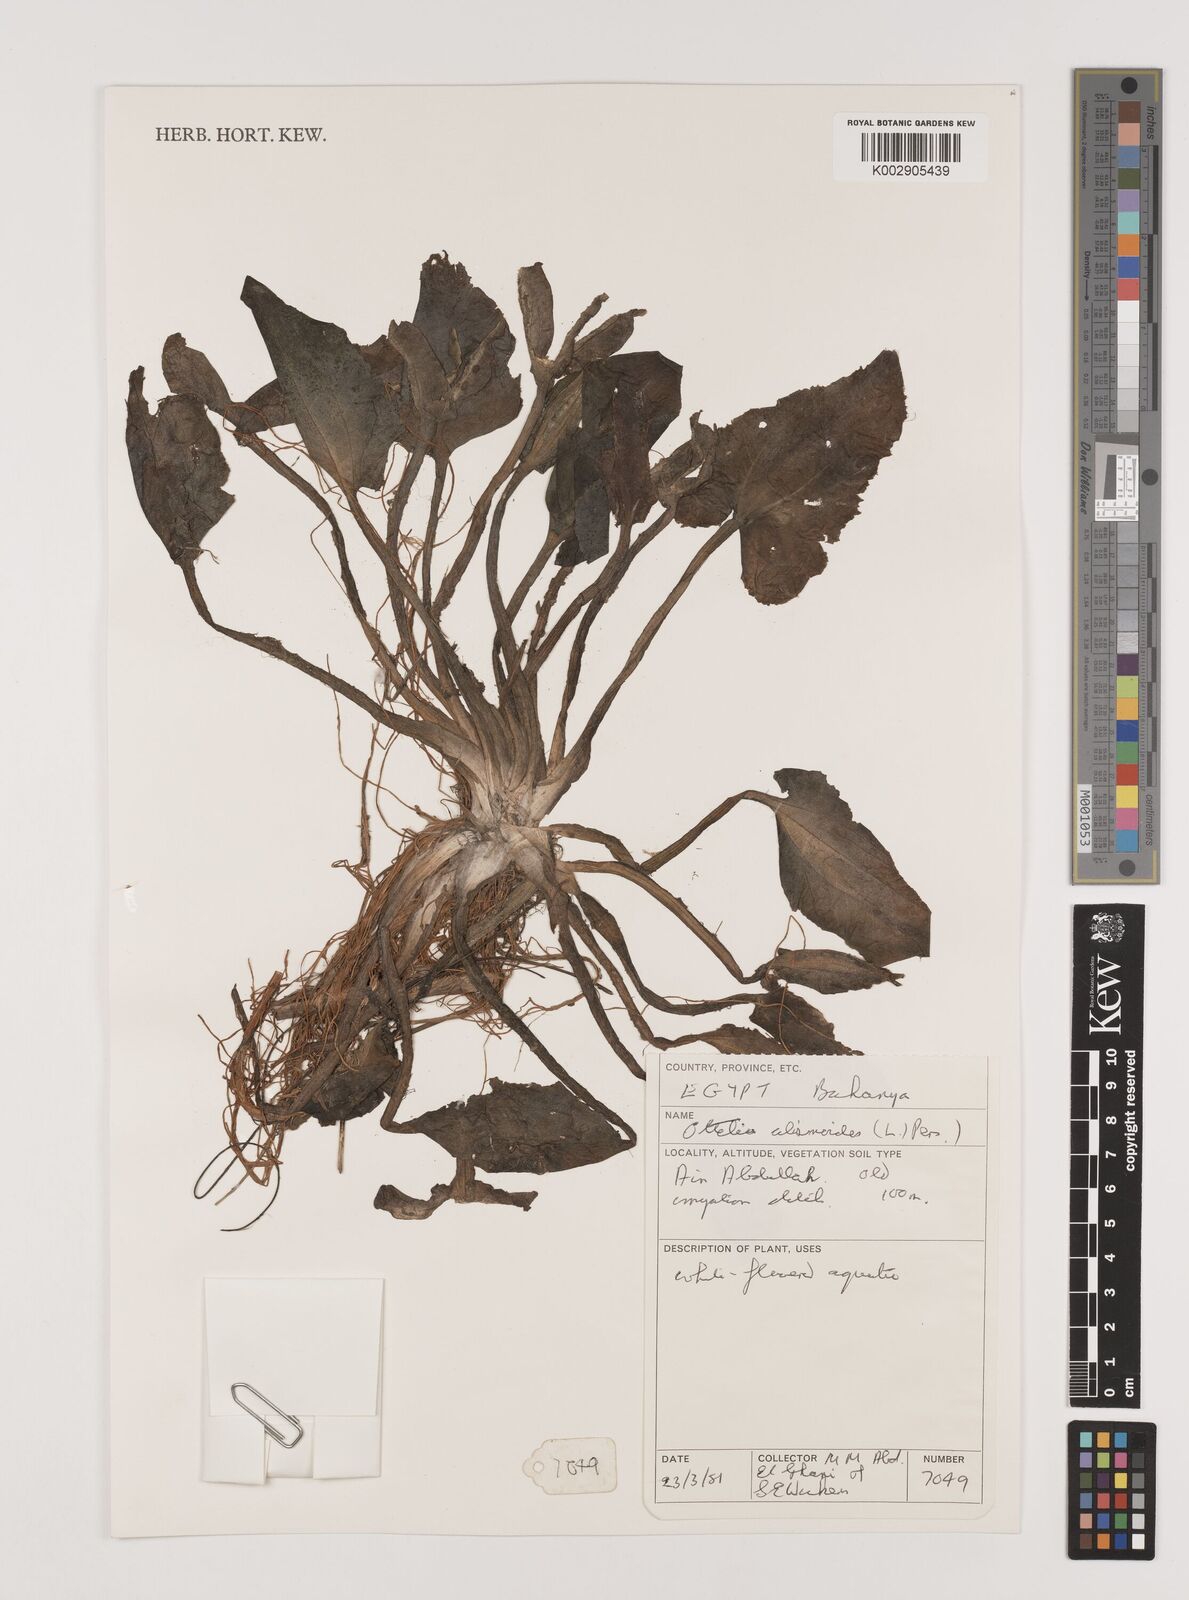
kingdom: Plantae
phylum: Tracheophyta
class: Liliopsida
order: Alismatales
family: Hydrocharitaceae
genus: Ottelia
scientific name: Ottelia alismoides
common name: Duck-lettuce
